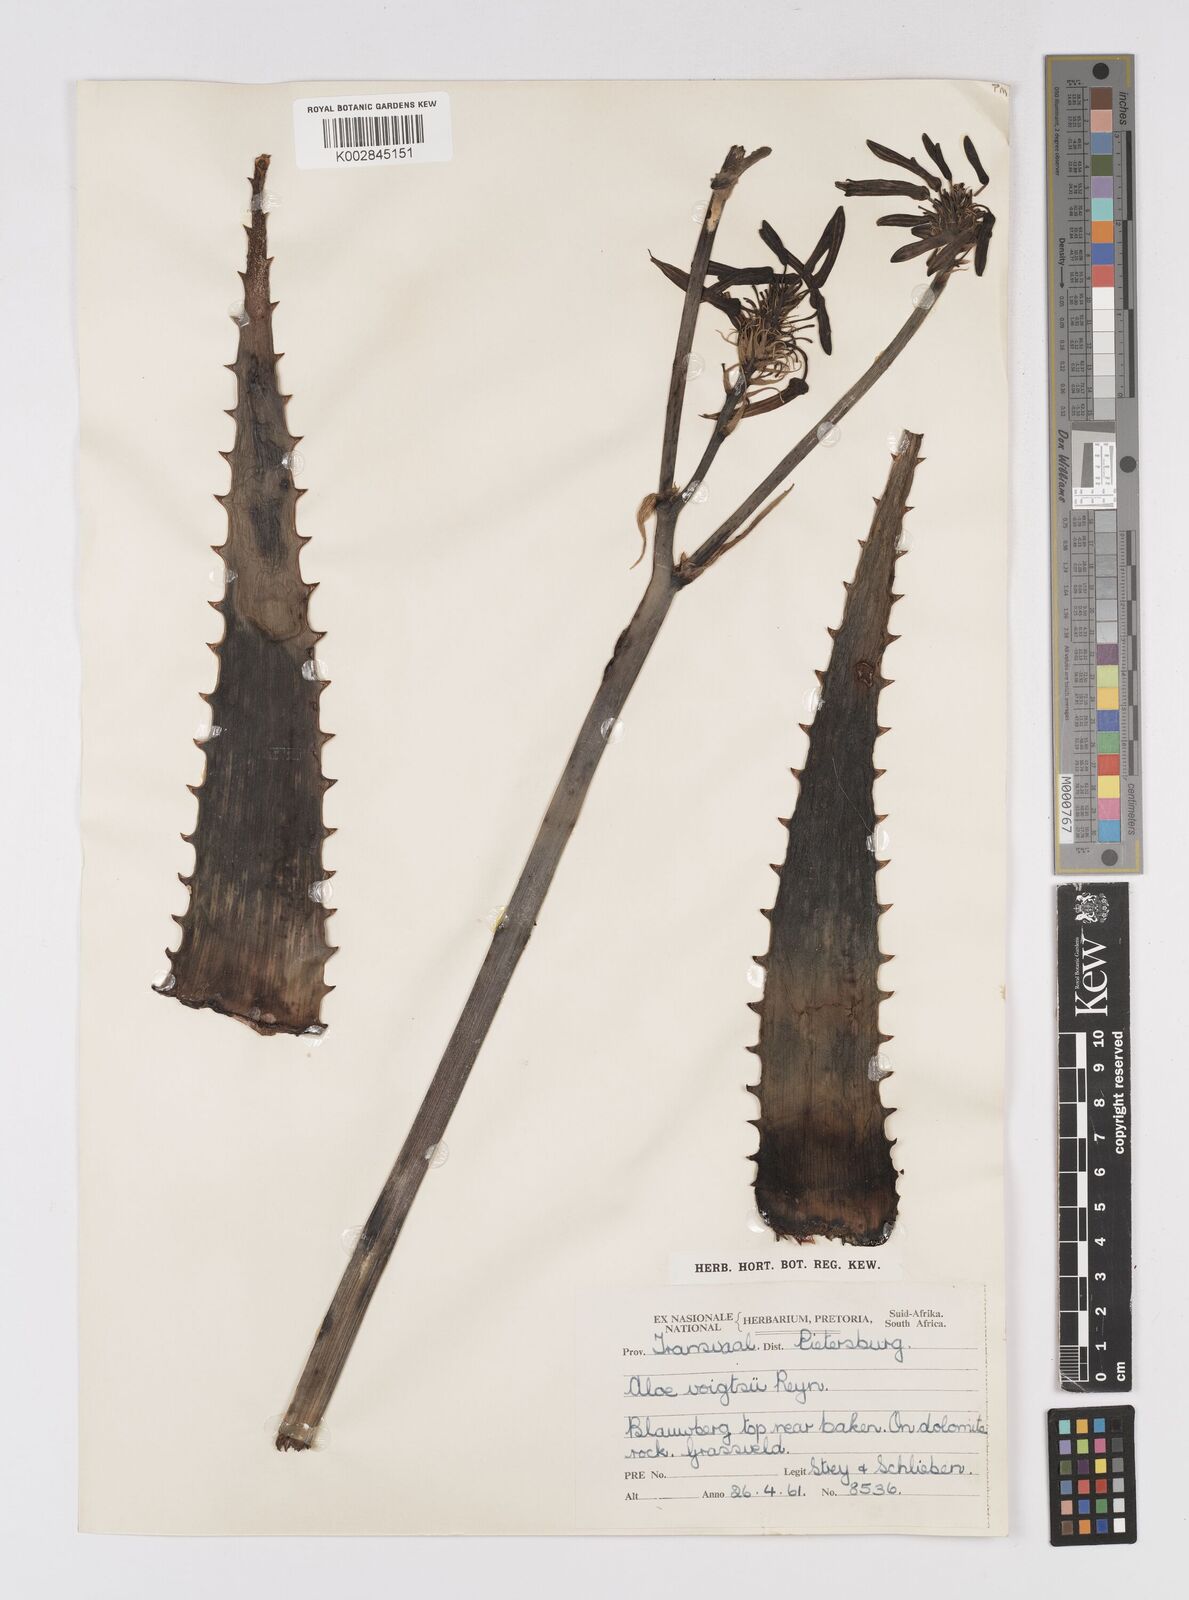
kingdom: Plantae
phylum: Tracheophyta
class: Liliopsida
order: Asparagales
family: Asphodelaceae
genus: Aloe
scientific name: Aloe vogtsii
